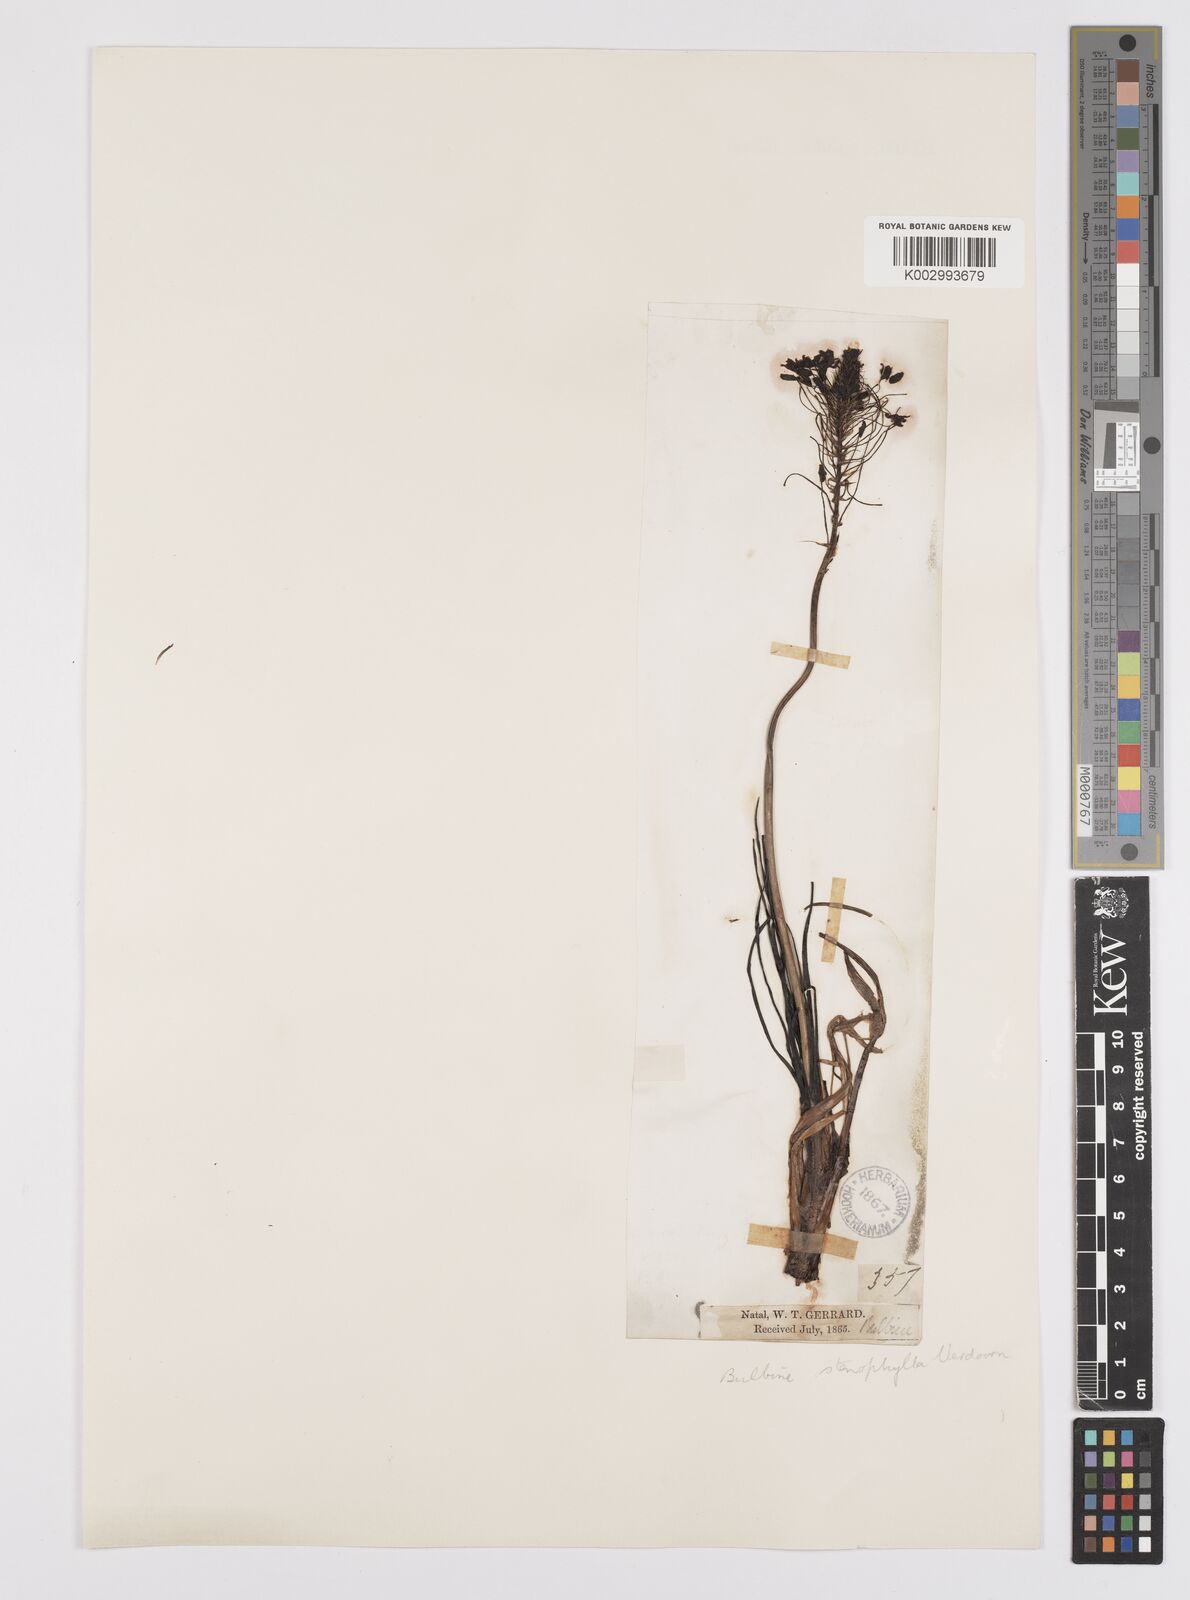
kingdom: Plantae
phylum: Tracheophyta
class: Liliopsida
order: Asparagales
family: Asphodelaceae
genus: Bulbine
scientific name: Bulbine capitata
